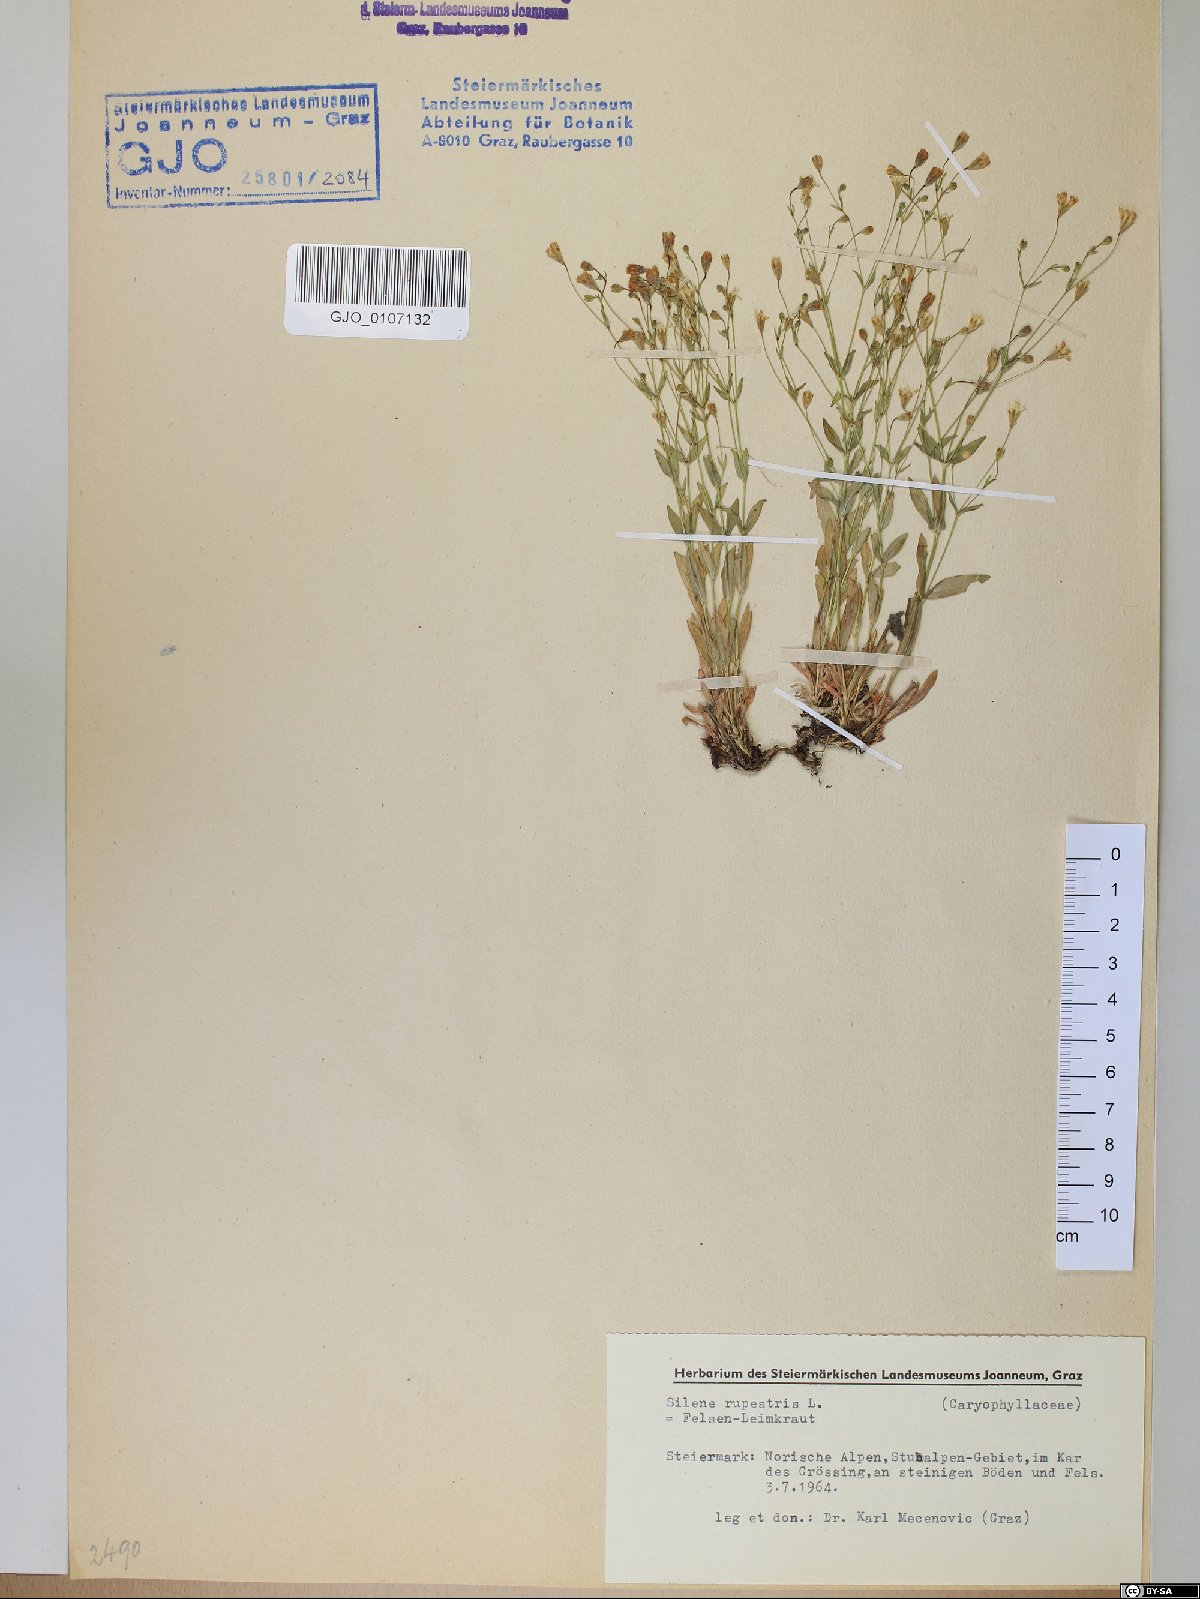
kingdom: Plantae
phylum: Tracheophyta
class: Magnoliopsida
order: Caryophyllales
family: Caryophyllaceae
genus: Atocion
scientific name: Atocion rupestre
